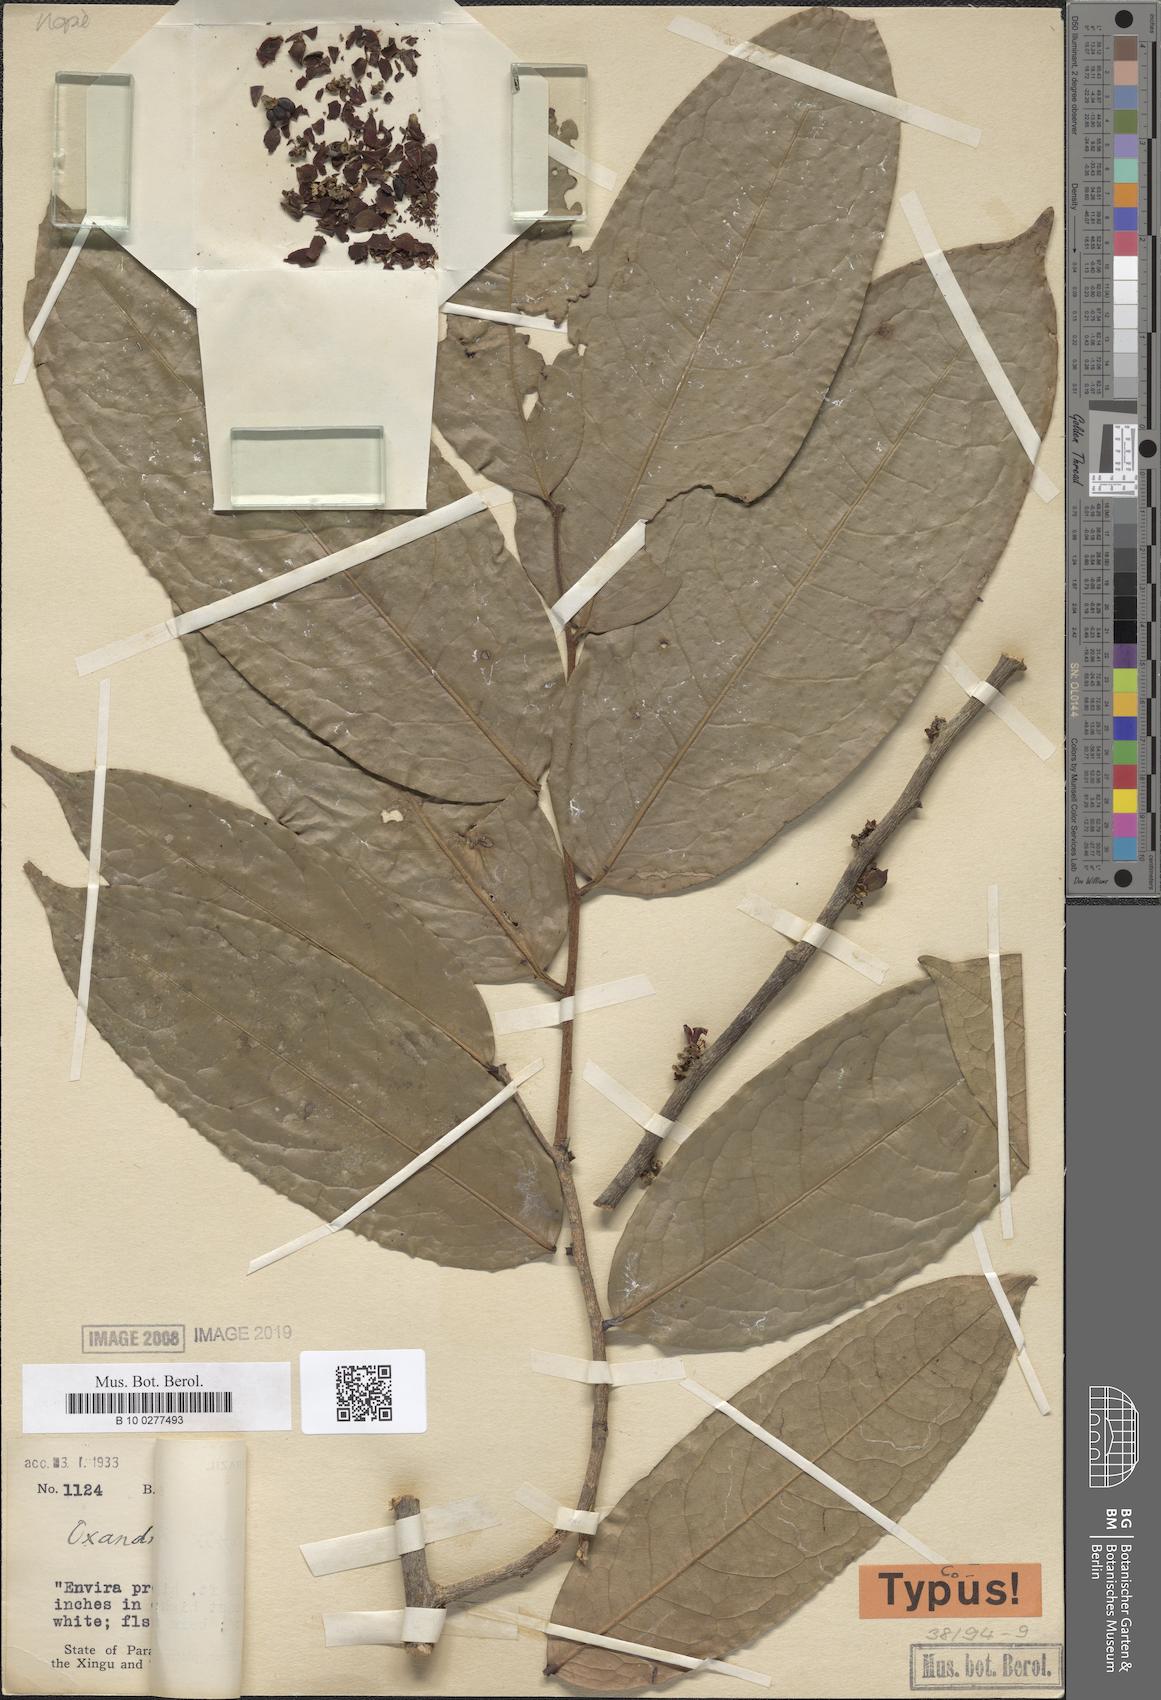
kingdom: Plantae
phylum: Tracheophyta
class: Magnoliopsida
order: Magnoliales
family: Annonaceae
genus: Oxandra
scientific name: Oxandra krukoffii
